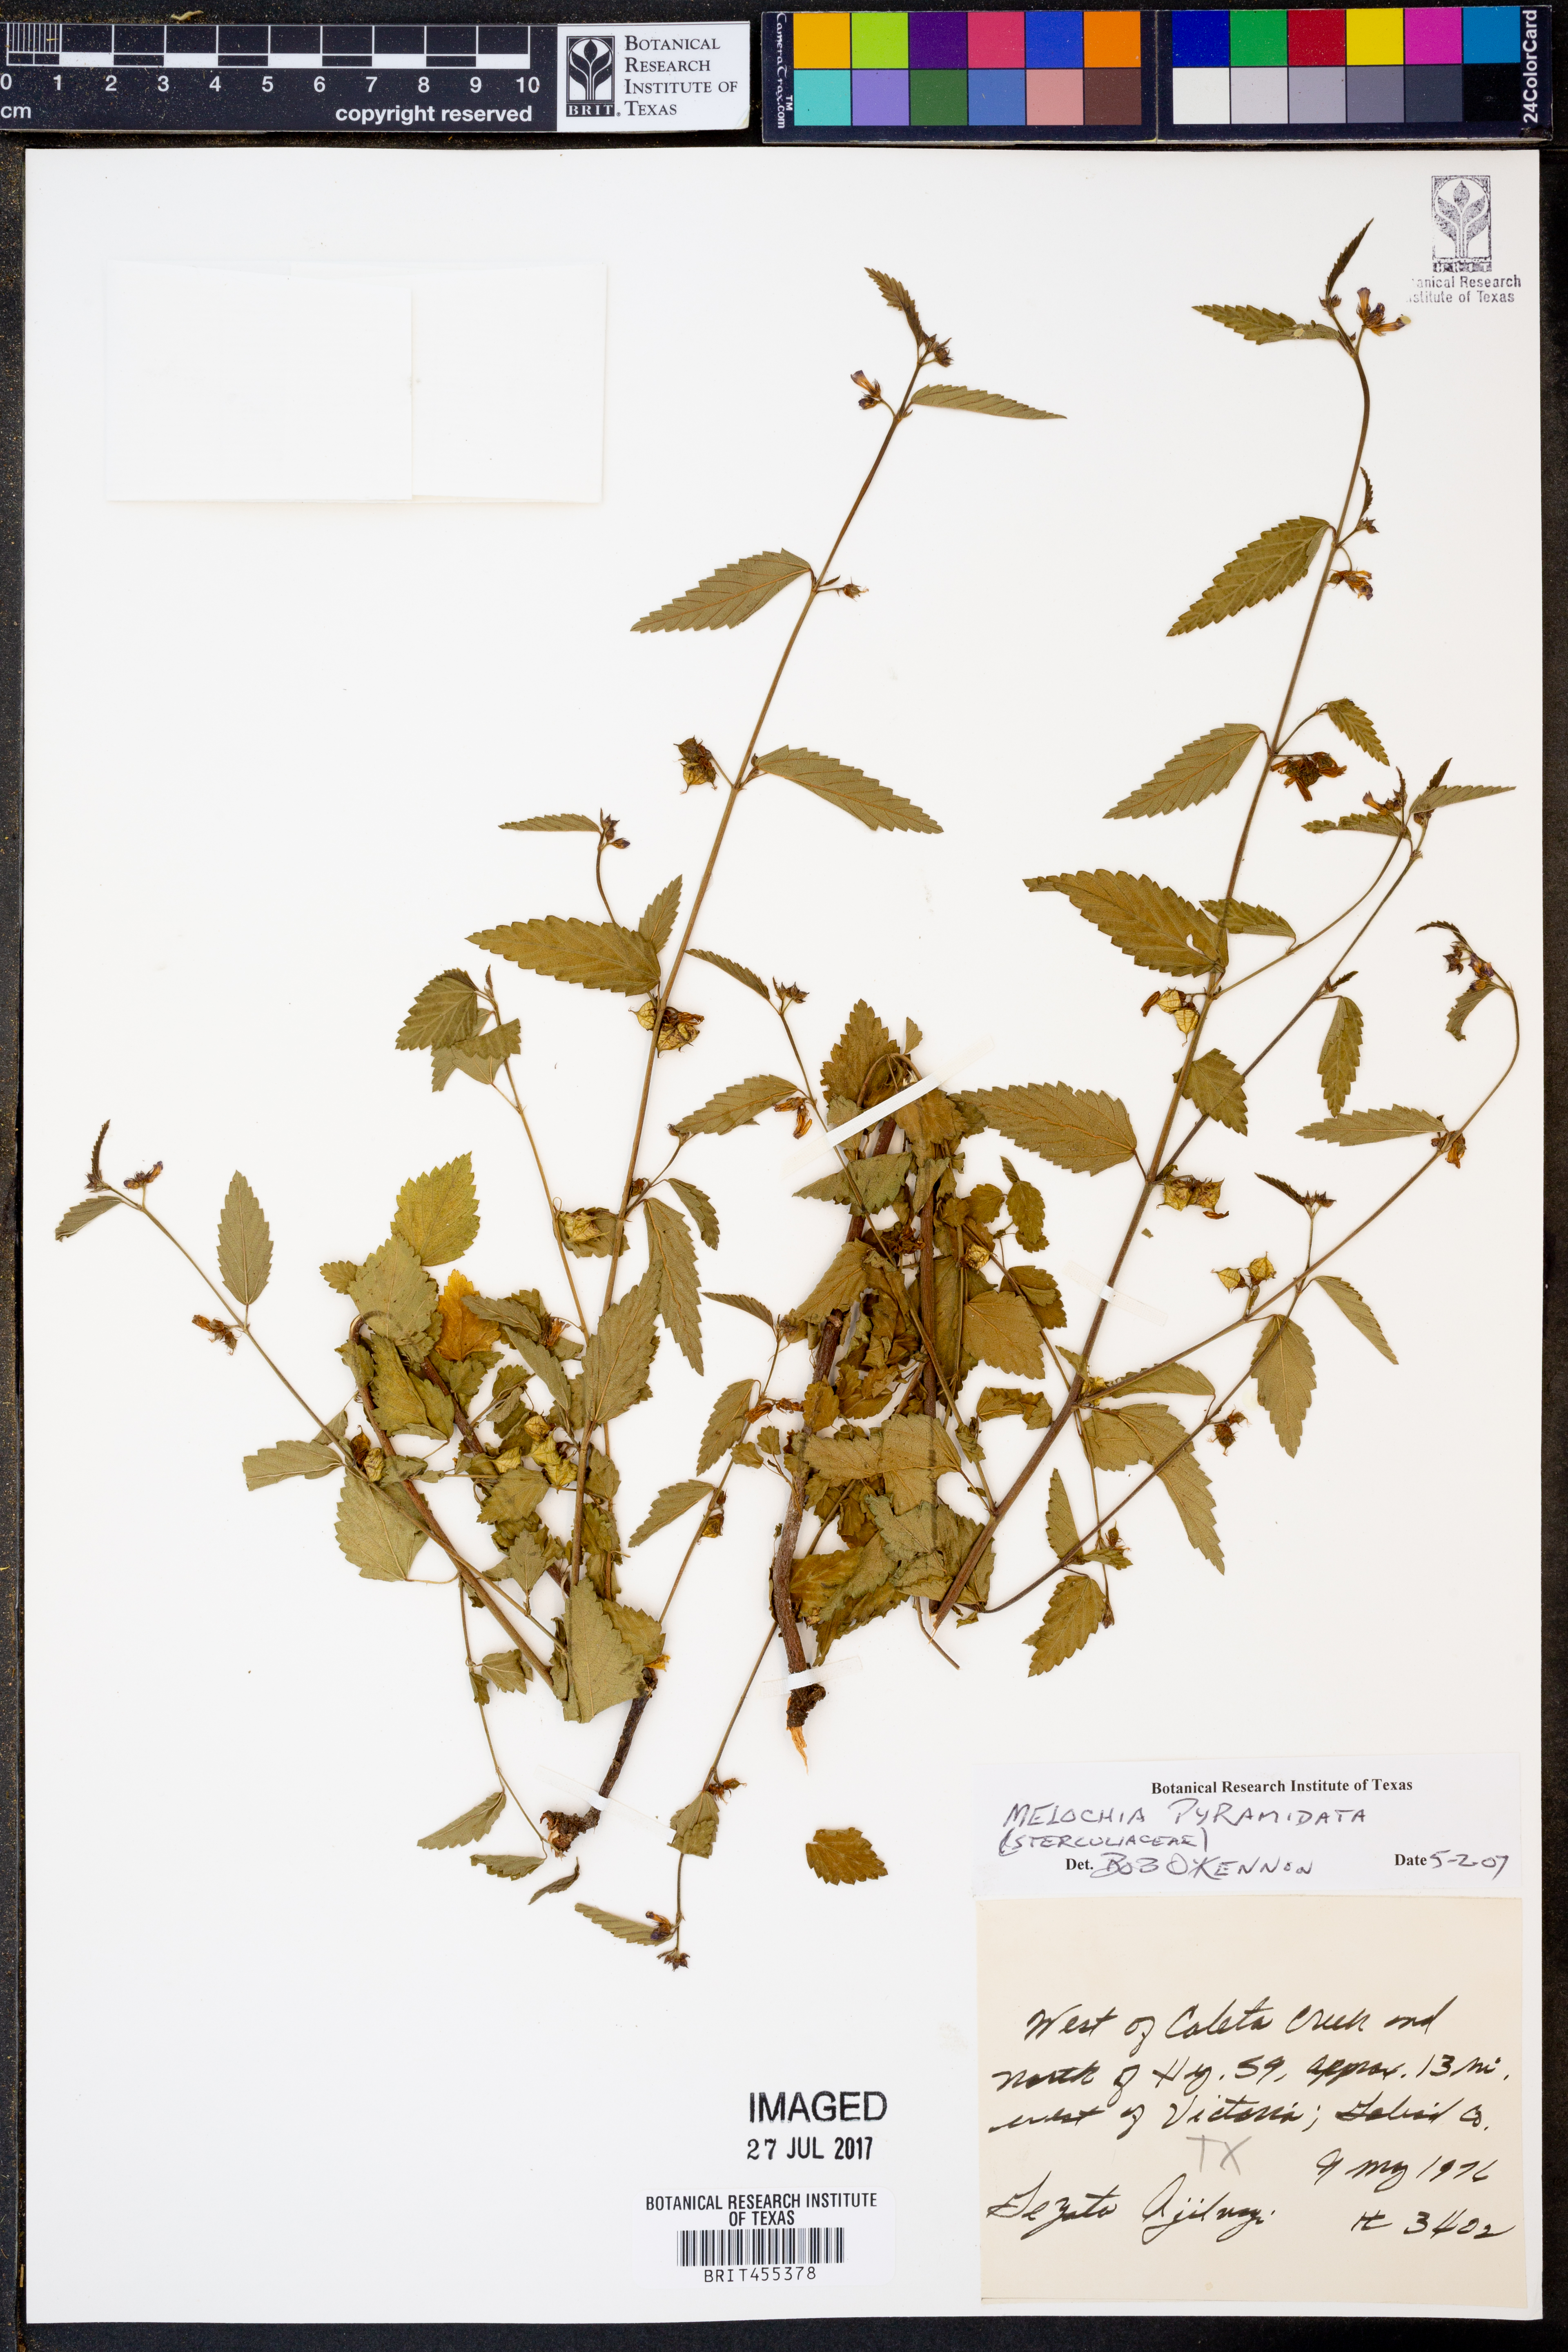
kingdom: Plantae
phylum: Tracheophyta
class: Magnoliopsida
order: Malvales
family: Malvaceae
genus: Melochia
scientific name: Melochia pyramidata
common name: Pyramidflower
